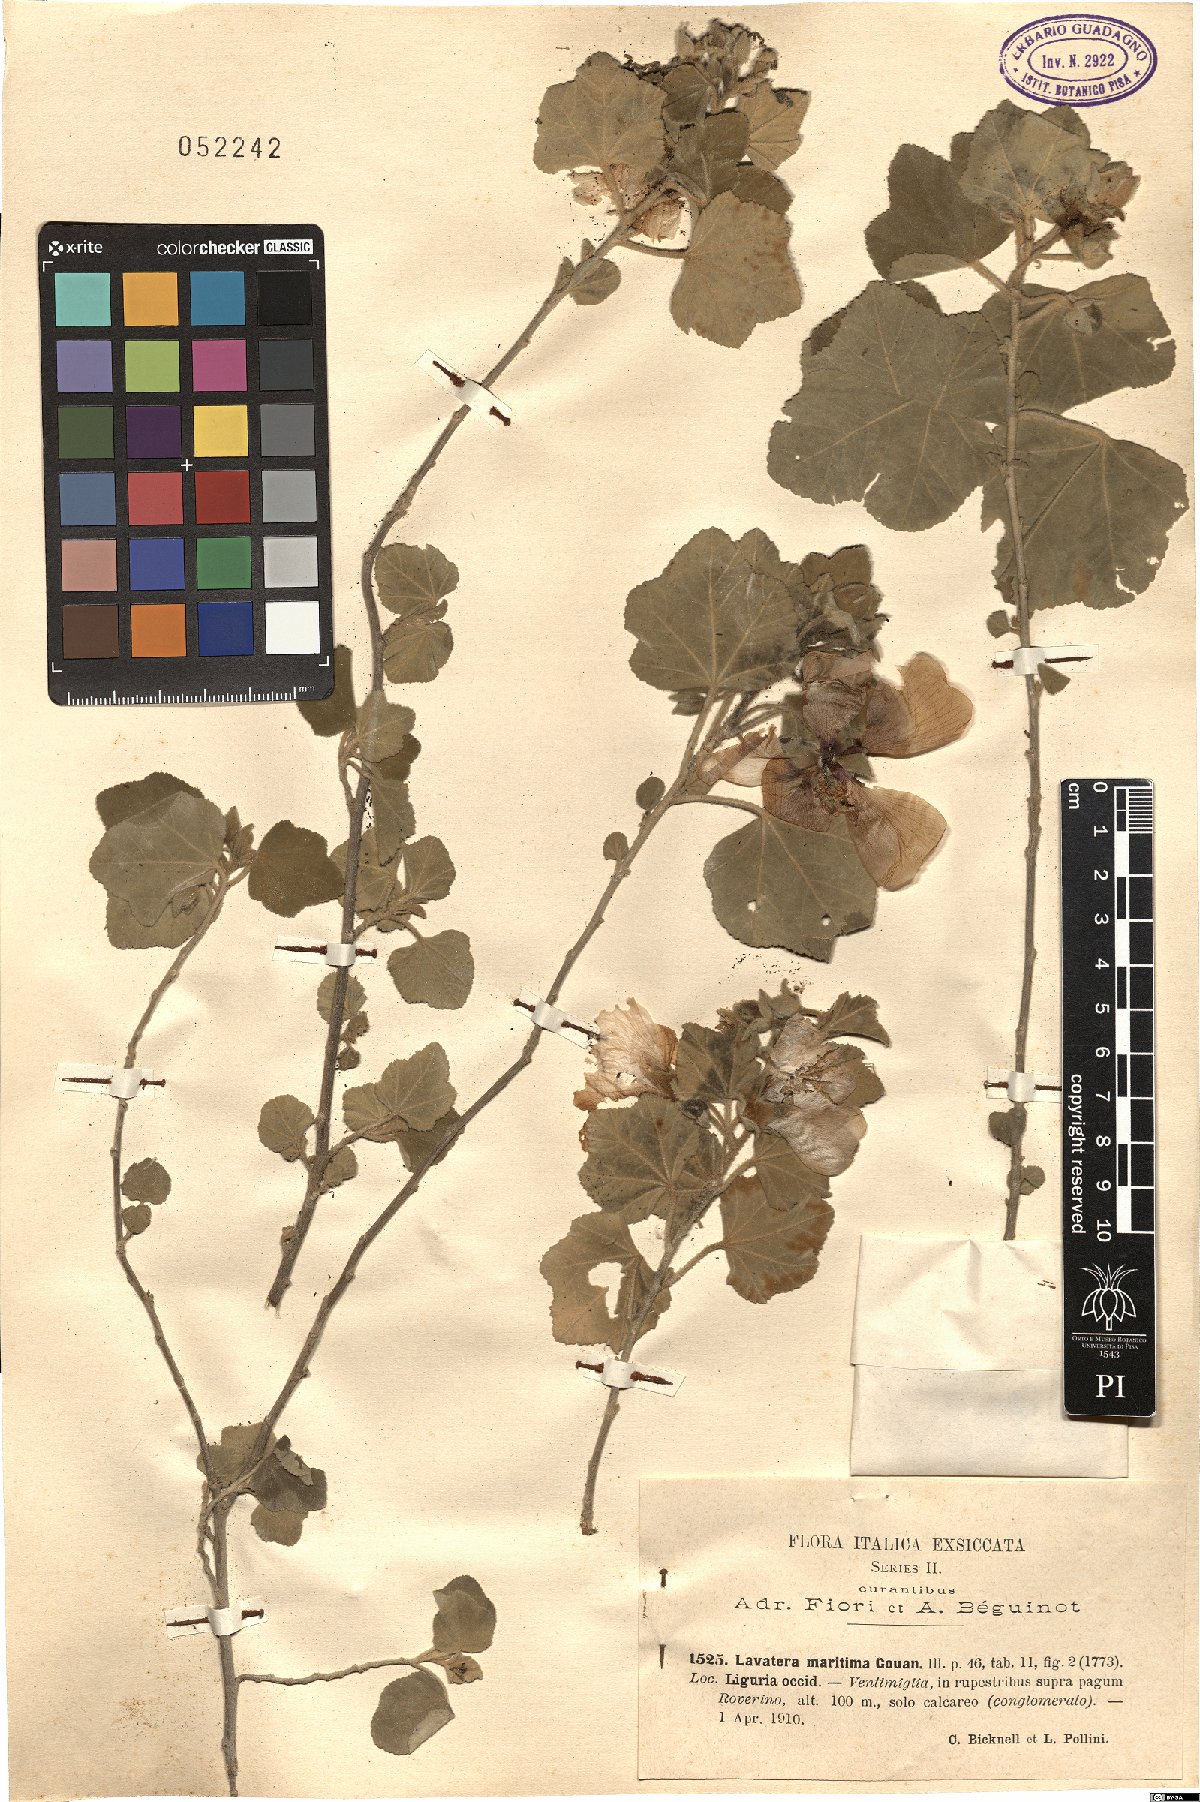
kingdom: Plantae
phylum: Tracheophyta
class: Magnoliopsida
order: Malvales
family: Malvaceae
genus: Malva
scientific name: Malva subovata
